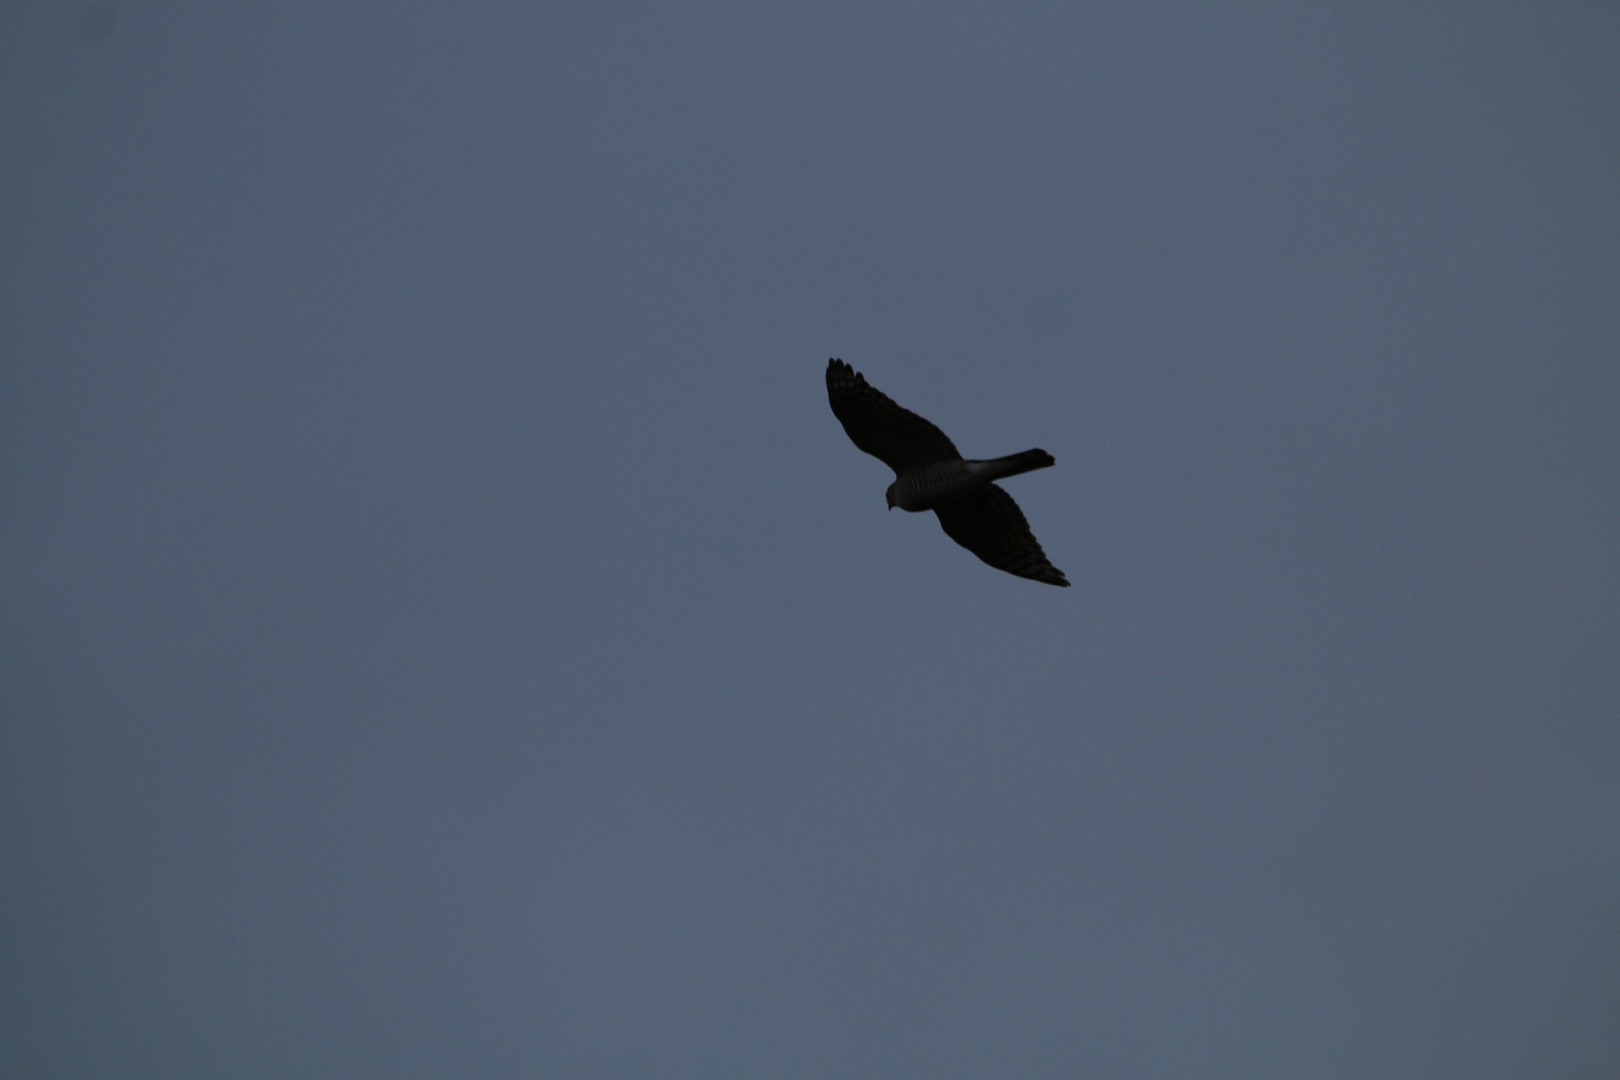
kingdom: Animalia
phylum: Chordata
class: Aves
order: Accipitriformes
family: Accipitridae
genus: Accipiter
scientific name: Accipiter nisus
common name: Spurvehøg
